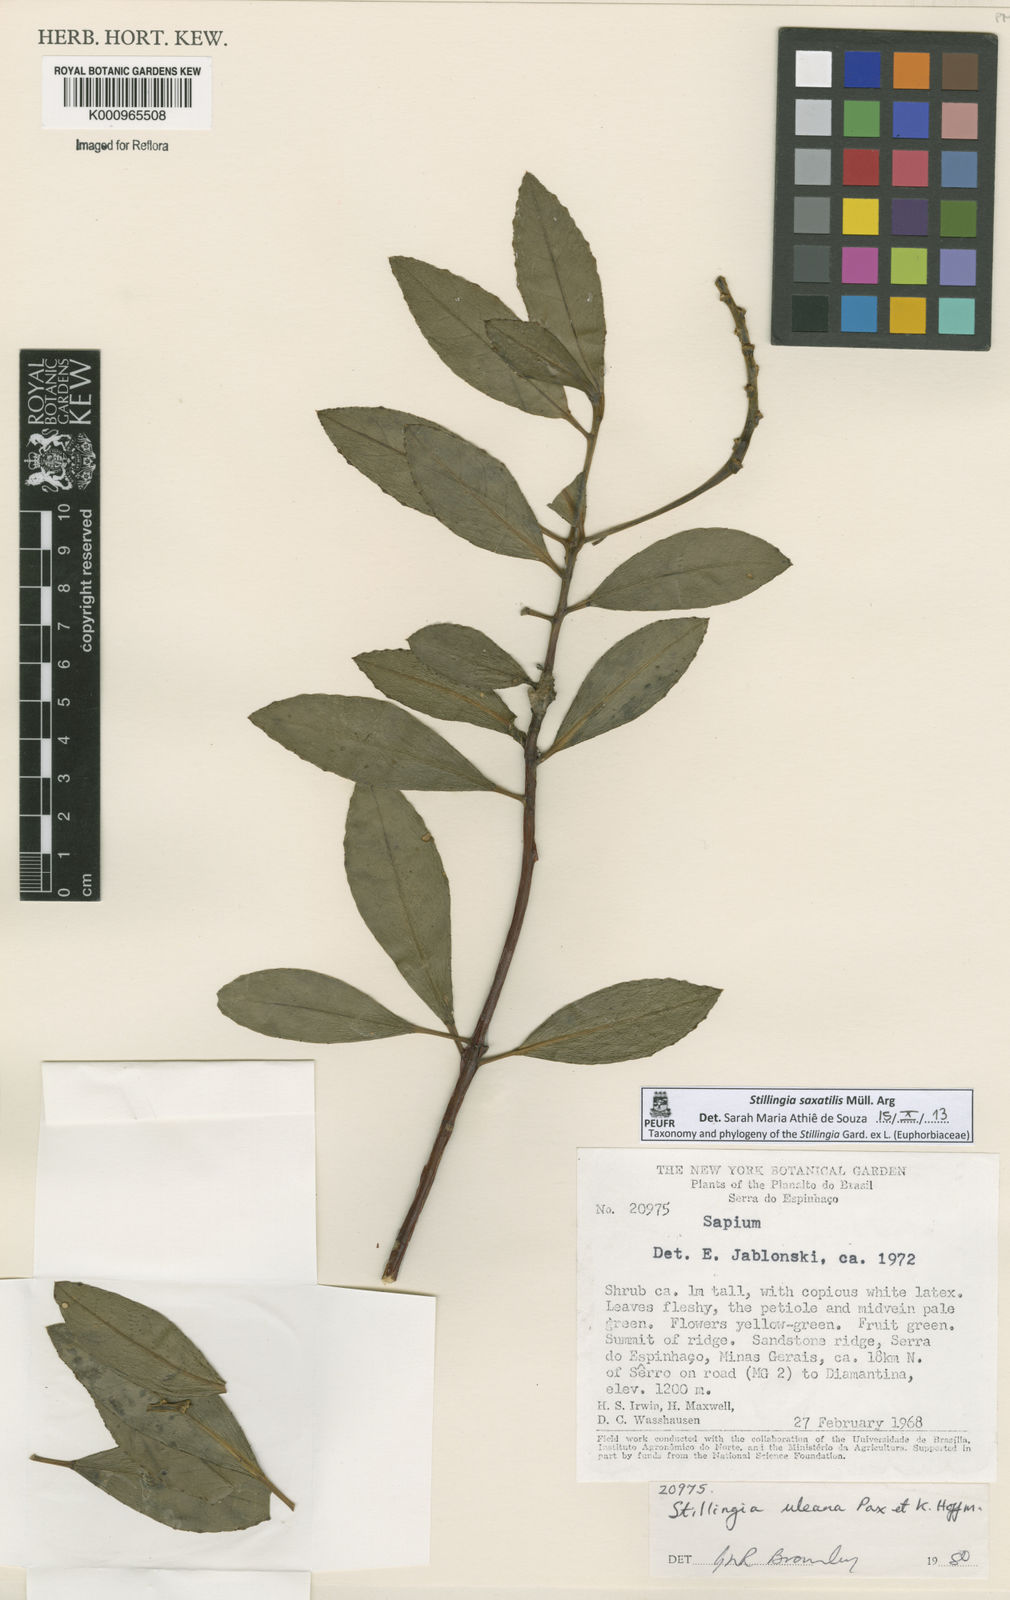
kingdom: Plantae
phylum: Tracheophyta
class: Magnoliopsida
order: Malpighiales
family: Euphorbiaceae
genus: Stillingia
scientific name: Stillingia
